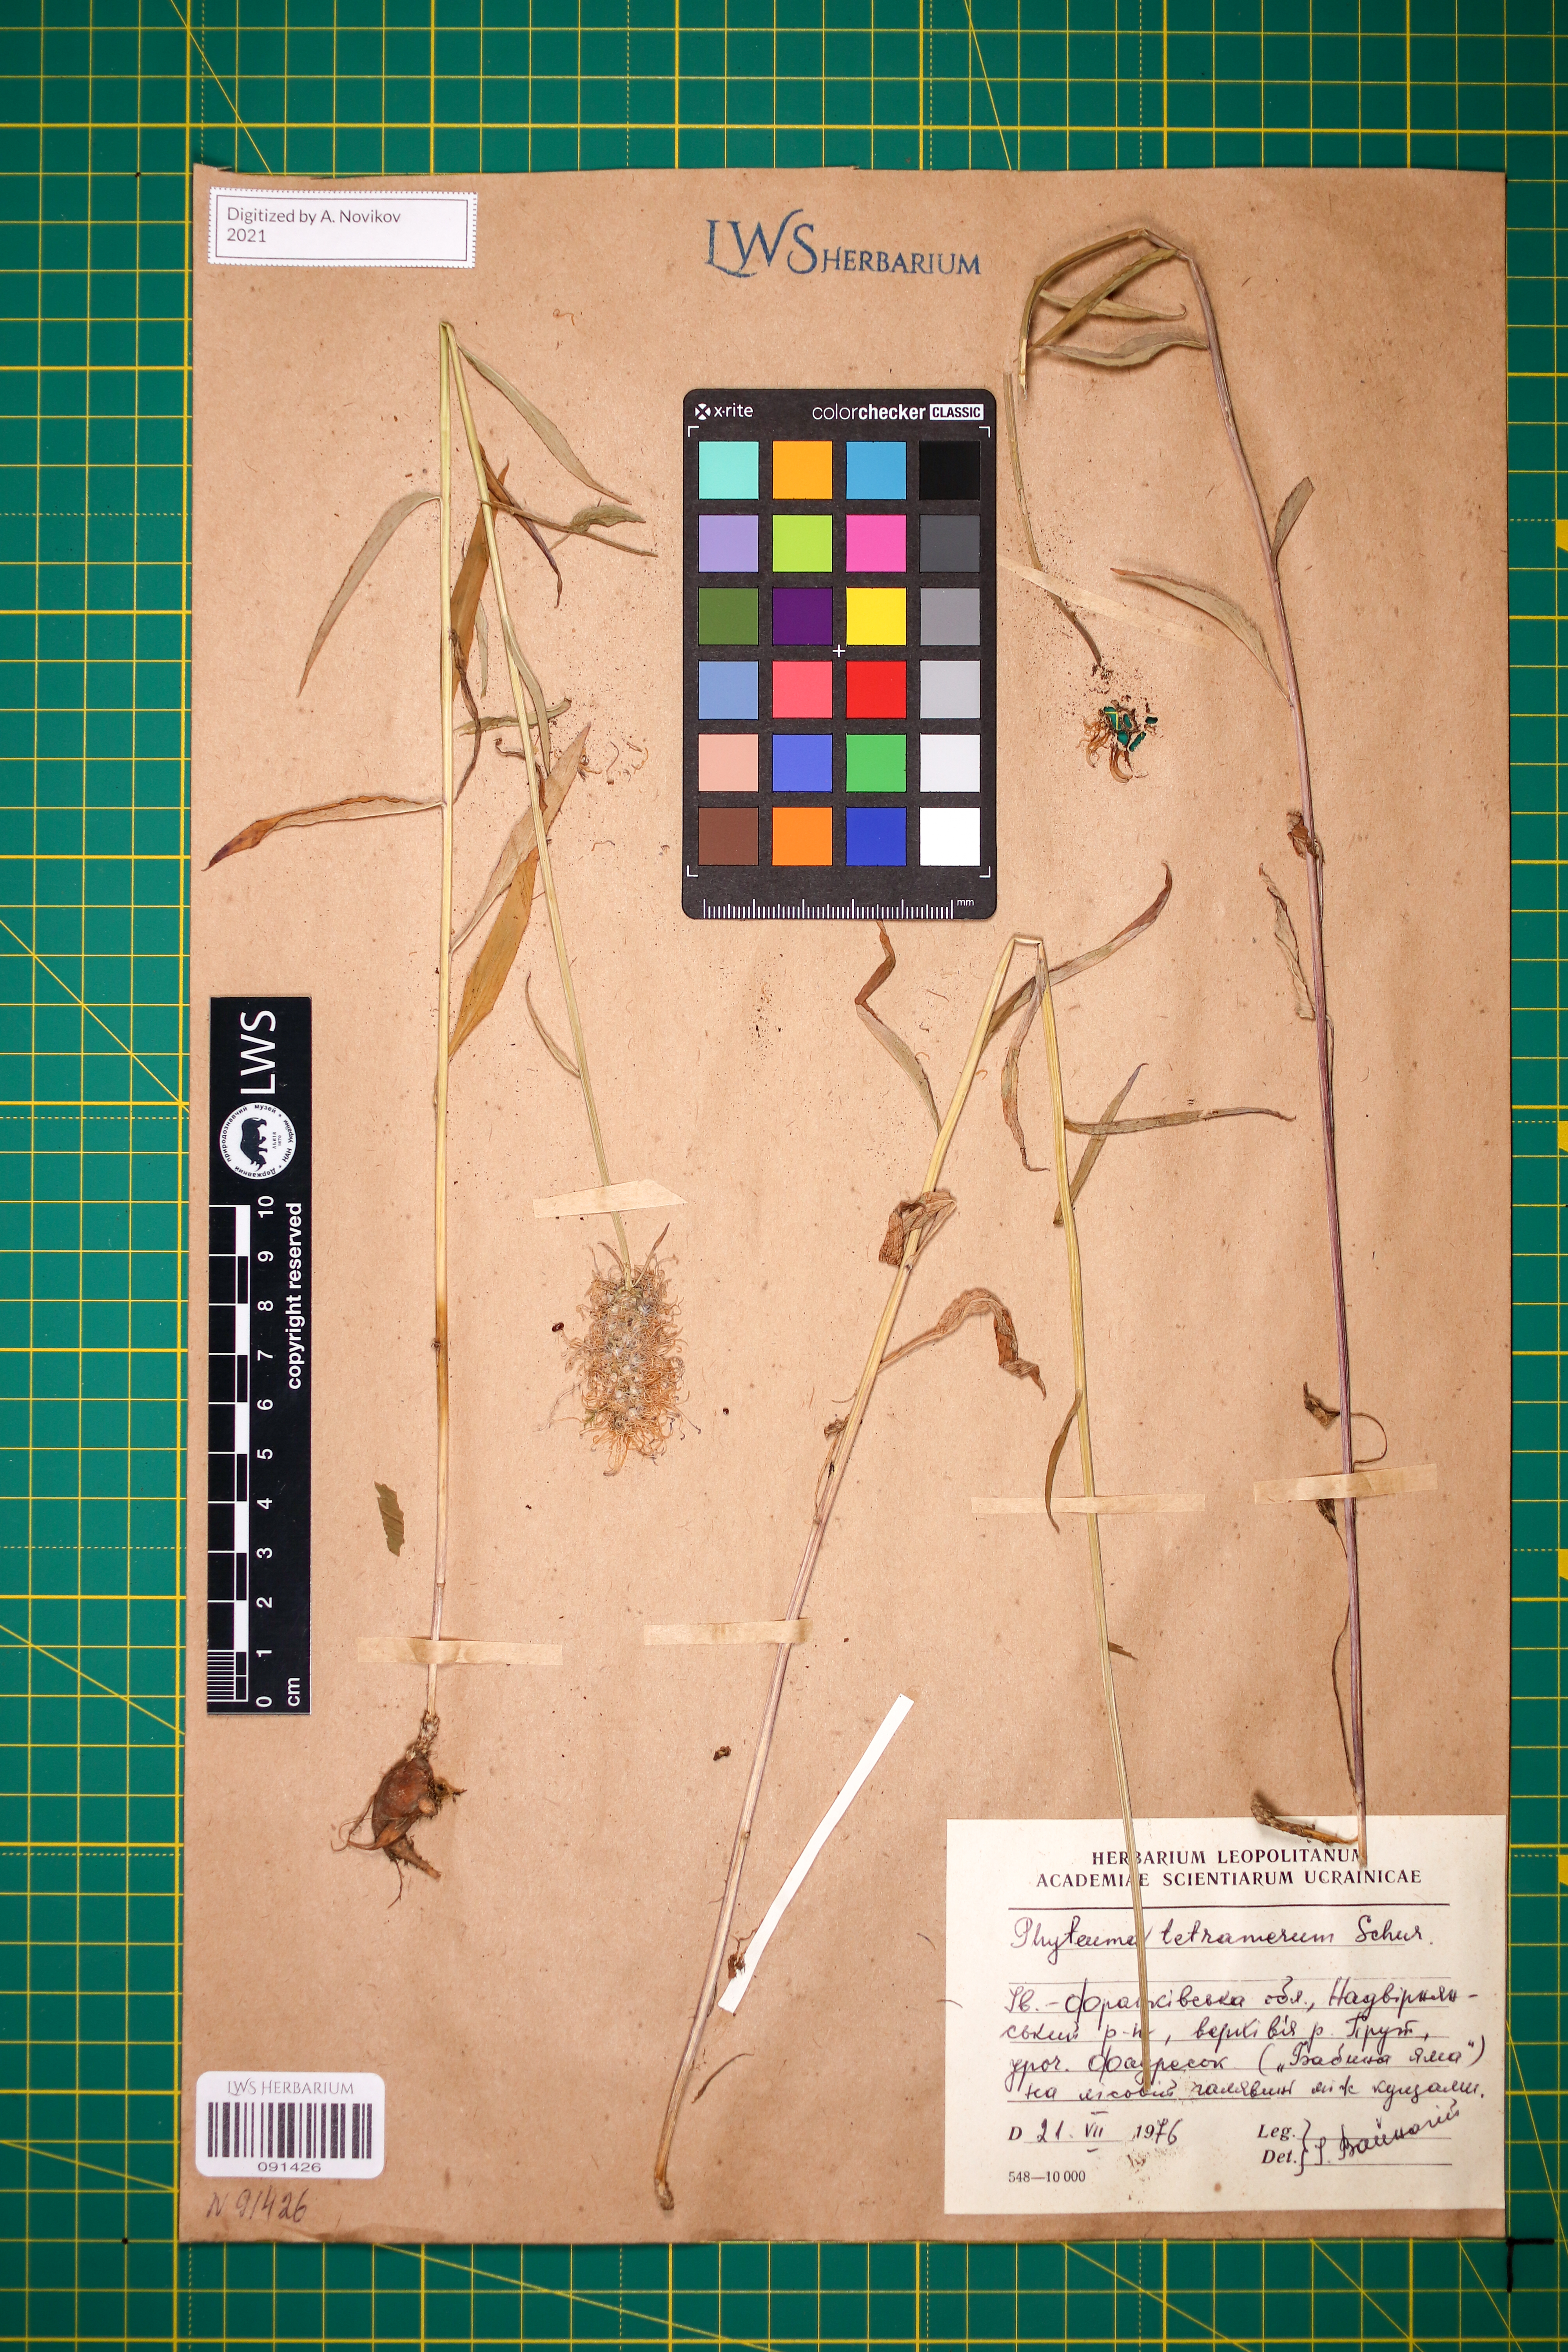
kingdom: Plantae
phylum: Tracheophyta
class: Magnoliopsida
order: Asterales
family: Campanulaceae
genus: Phyteuma
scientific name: Phyteuma tetramerum
